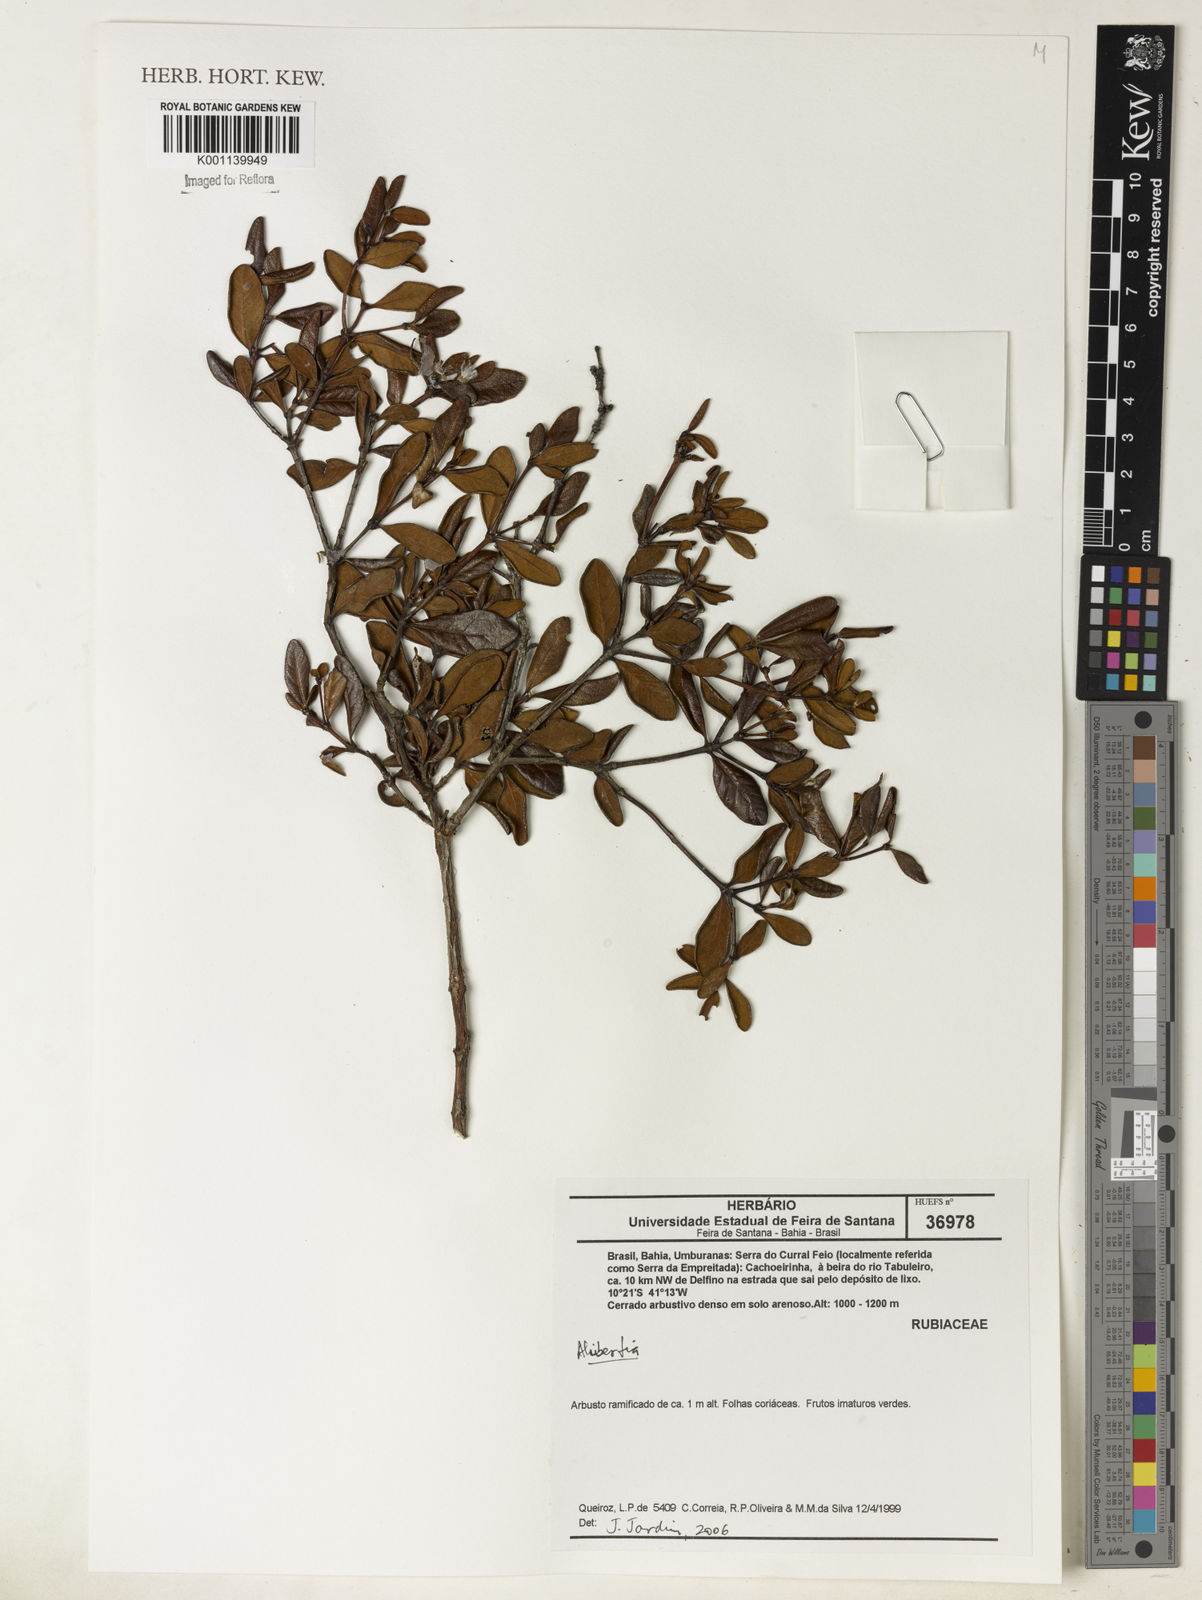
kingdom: Plantae
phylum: Tracheophyta
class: Magnoliopsida
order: Gentianales
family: Rubiaceae
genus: Alibertia
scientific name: Alibertia
